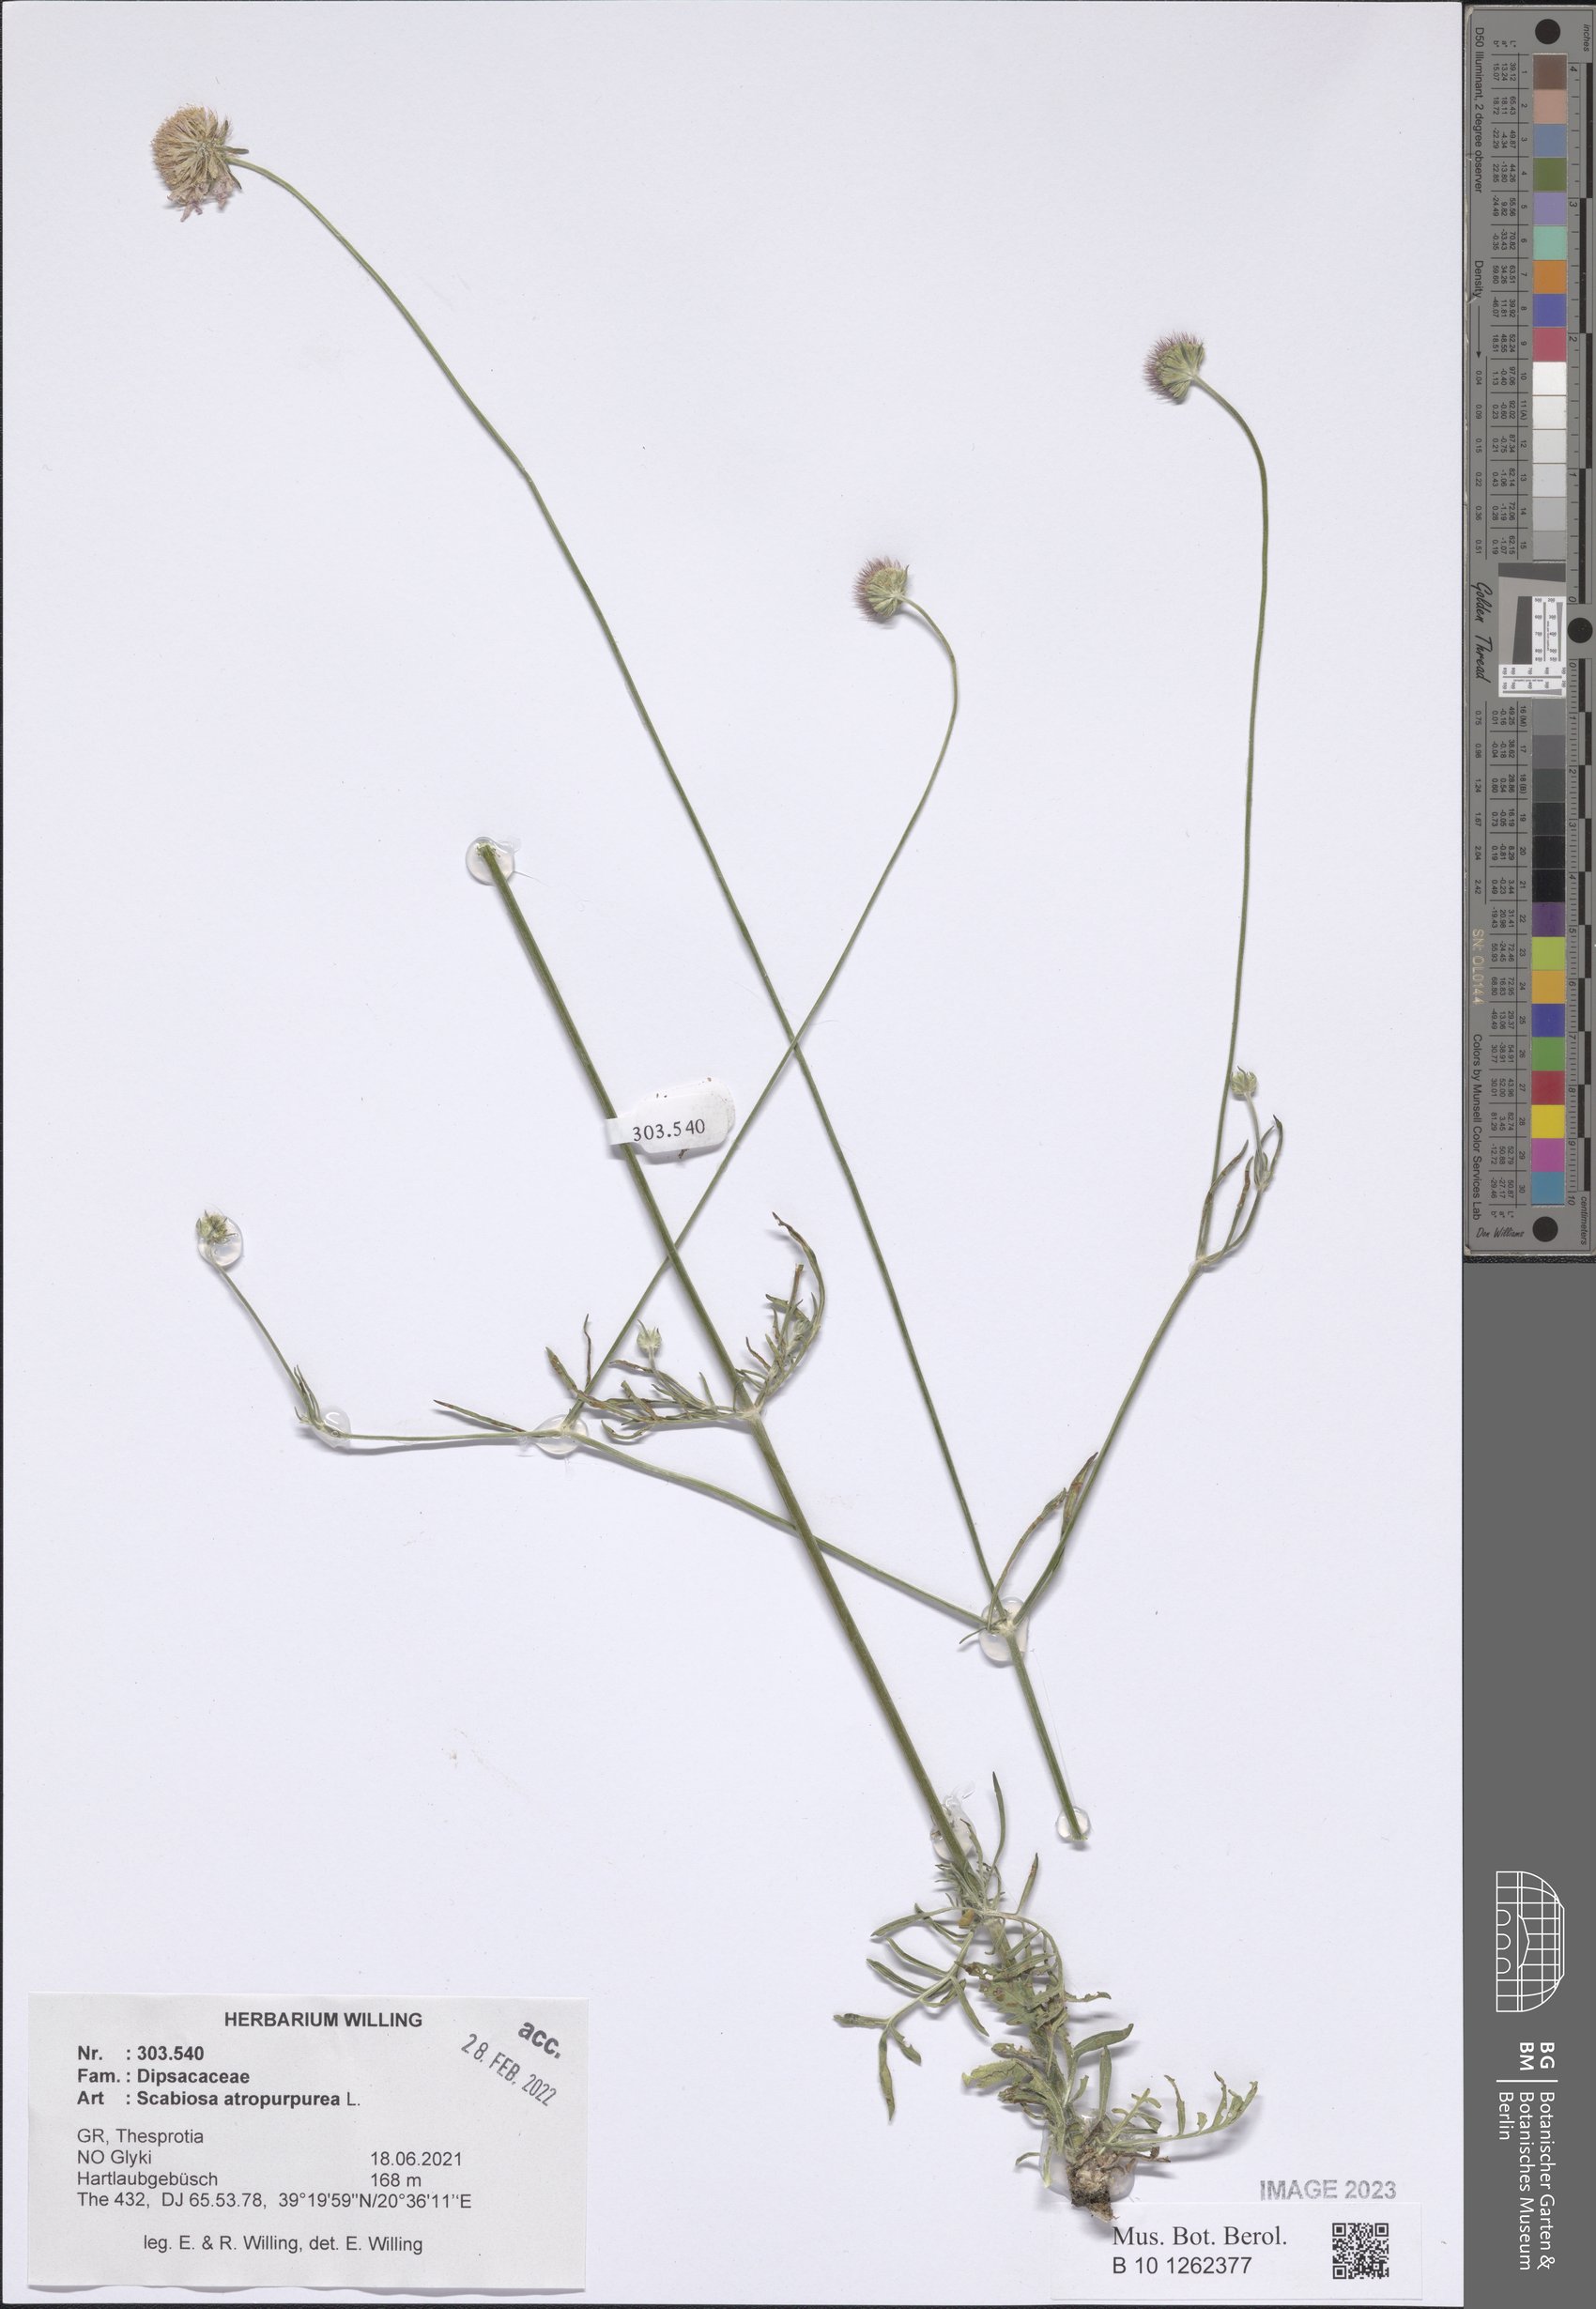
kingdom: Plantae
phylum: Tracheophyta
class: Magnoliopsida
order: Dipsacales
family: Caprifoliaceae
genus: Sixalix
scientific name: Sixalix atropurpurea
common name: Sweet scabious
